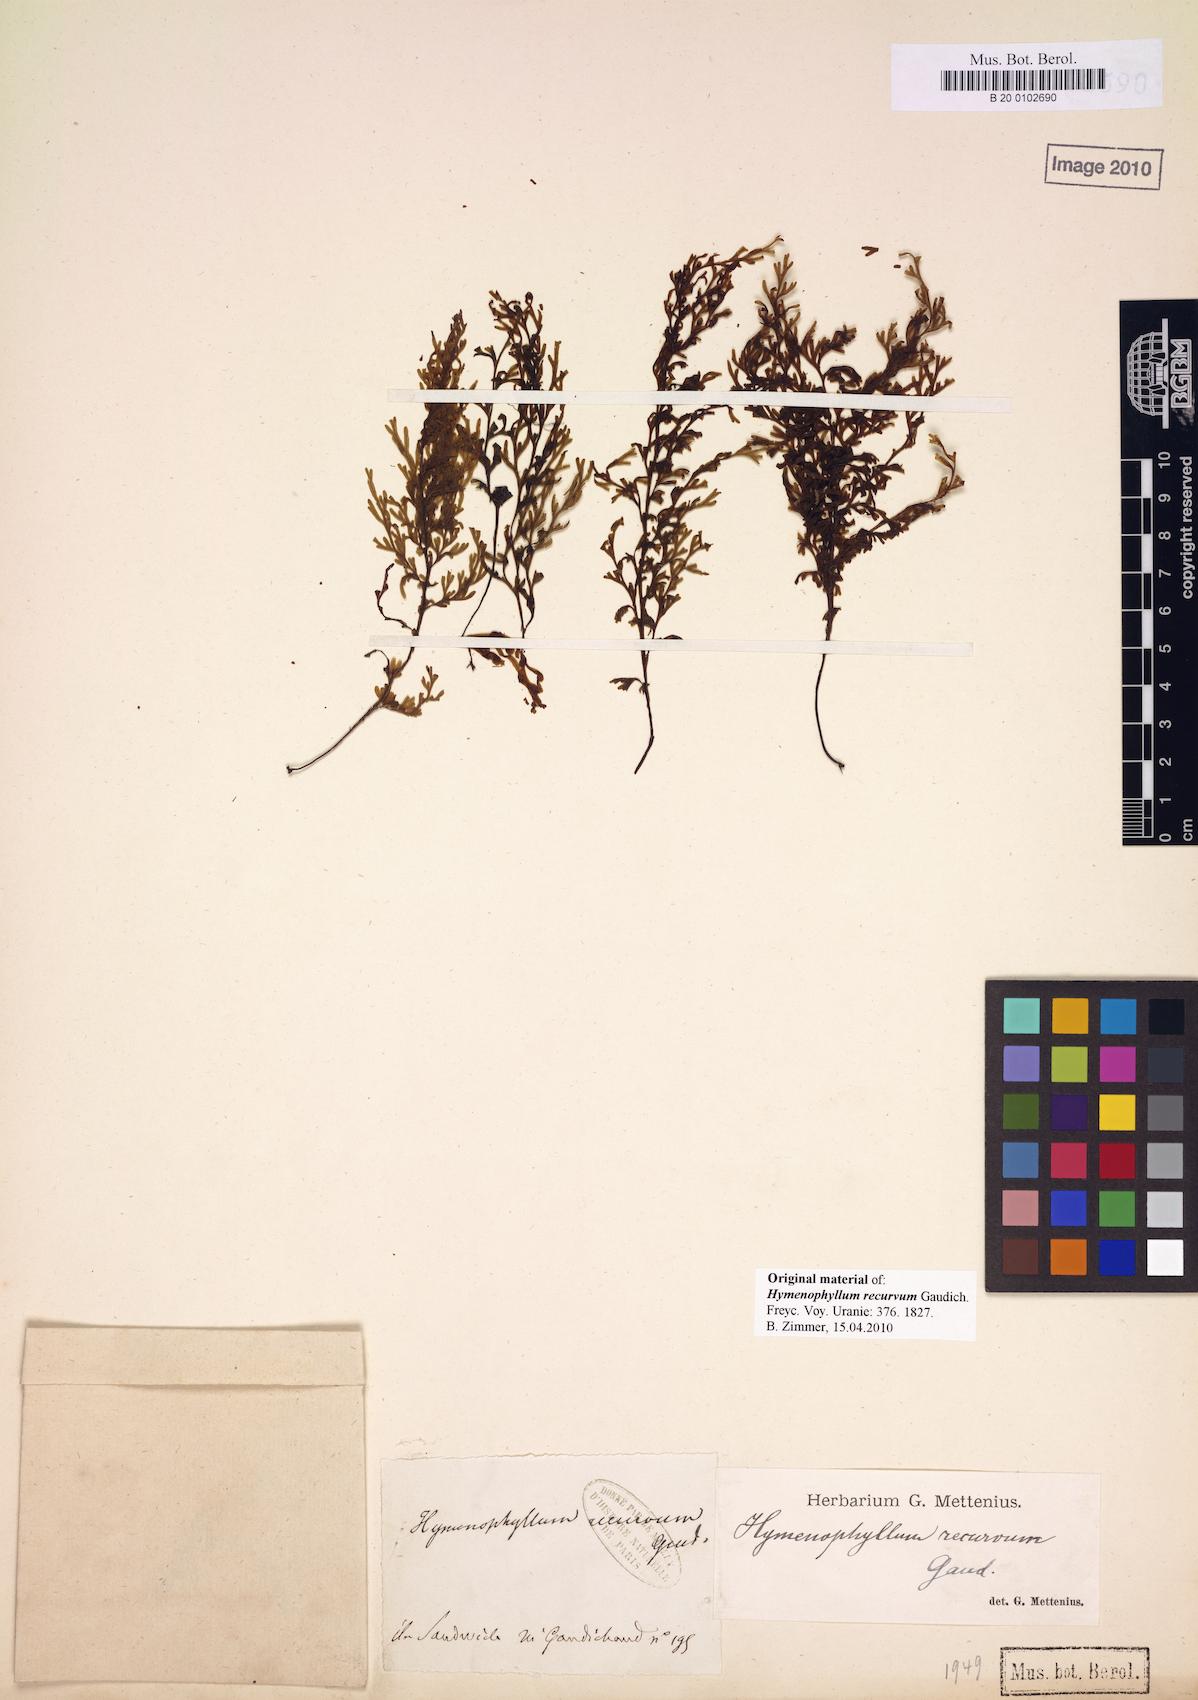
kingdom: Plantae
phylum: Tracheophyta
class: Polypodiopsida
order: Hymenophyllales
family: Hymenophyllaceae
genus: Hymenophyllum
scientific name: Hymenophyllum recurvum
